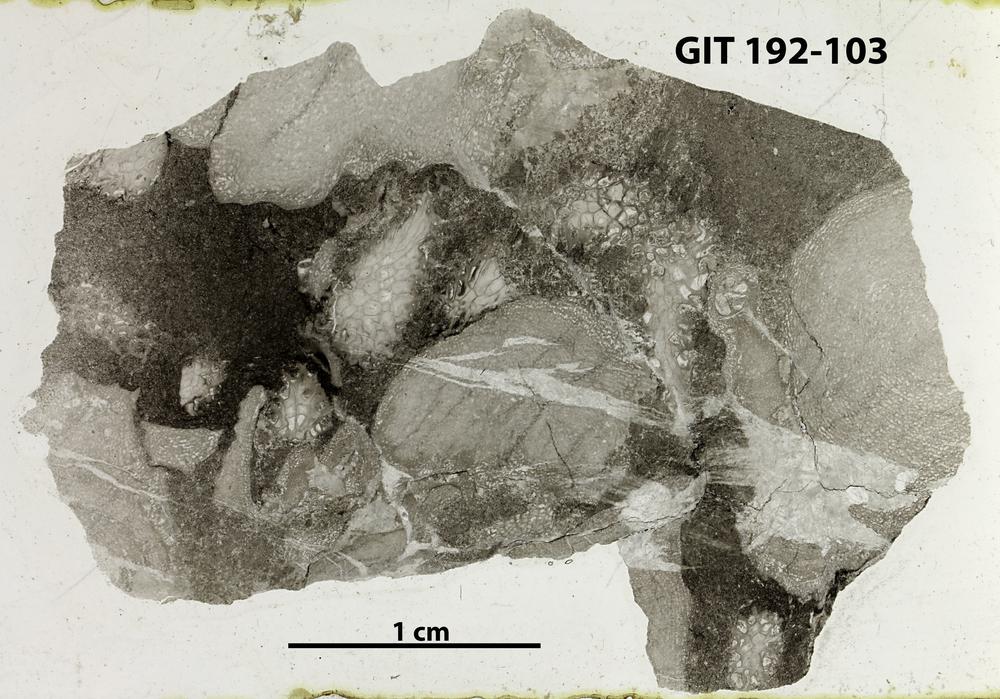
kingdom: Animalia
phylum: Porifera
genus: Clavidictyon
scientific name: Clavidictyon
